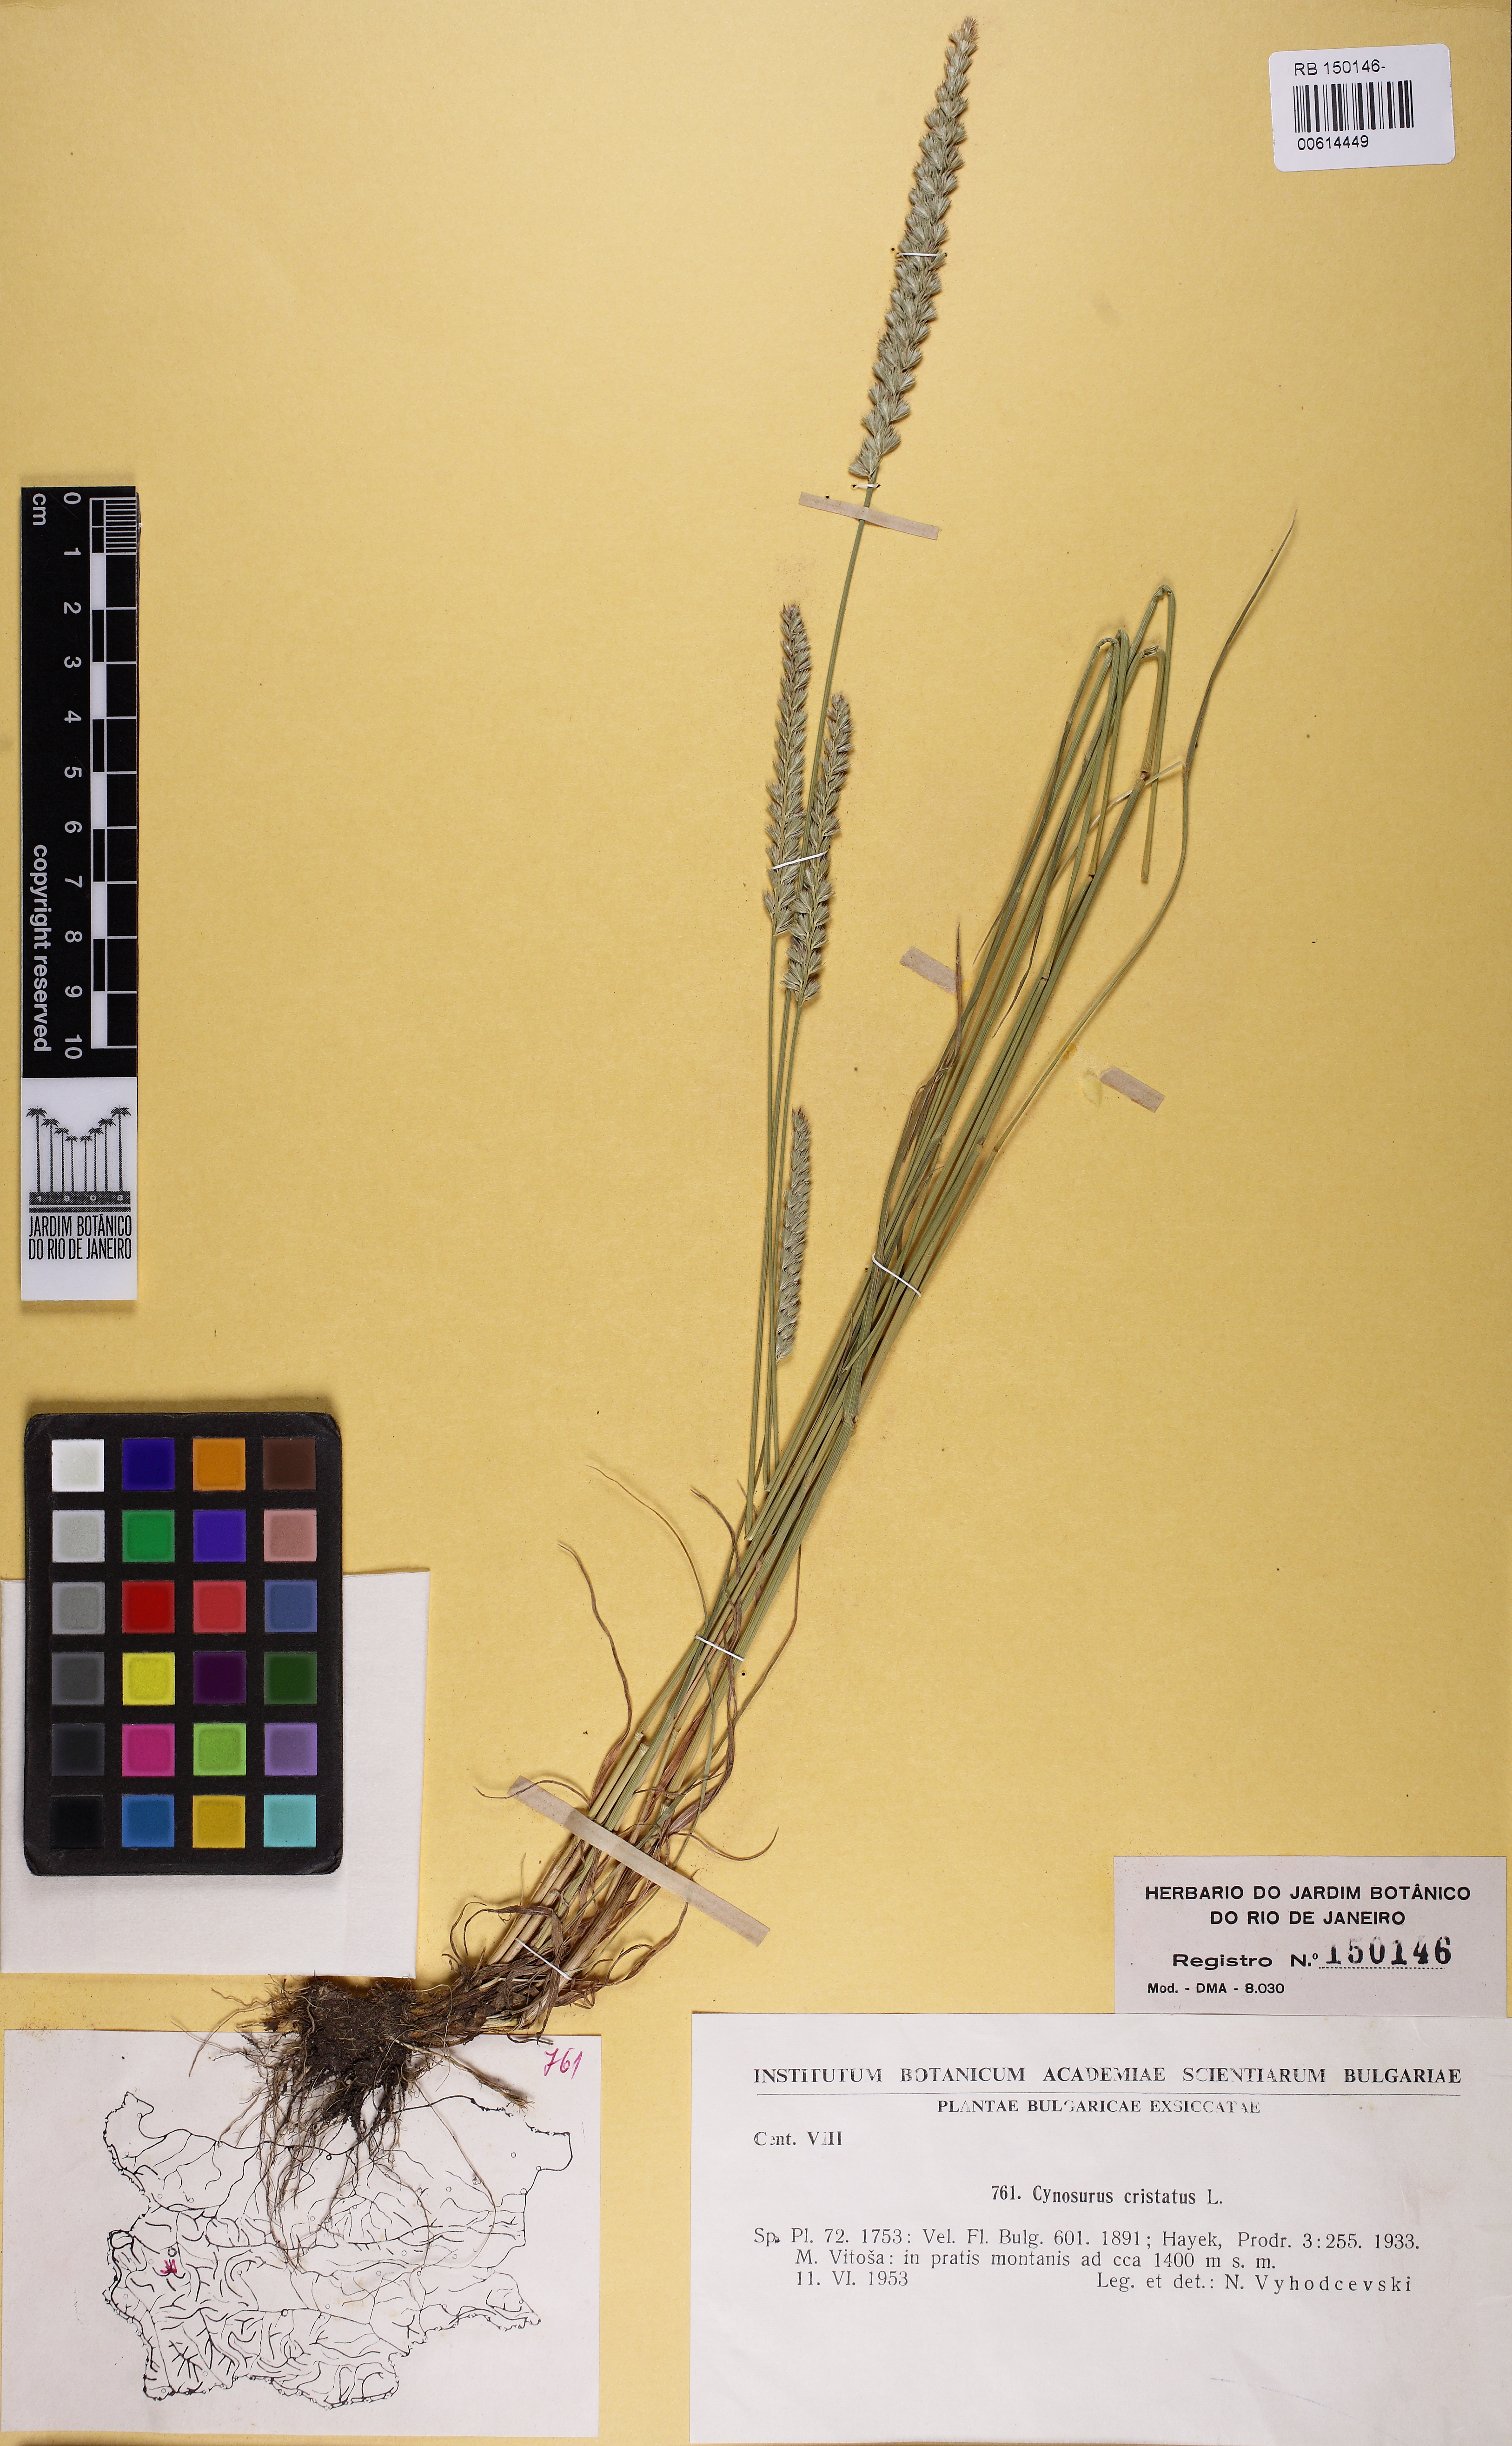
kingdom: Plantae
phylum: Tracheophyta
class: Liliopsida
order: Poales
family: Poaceae
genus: Cynosurus
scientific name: Cynosurus cristatus
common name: Crested dog's-tail
